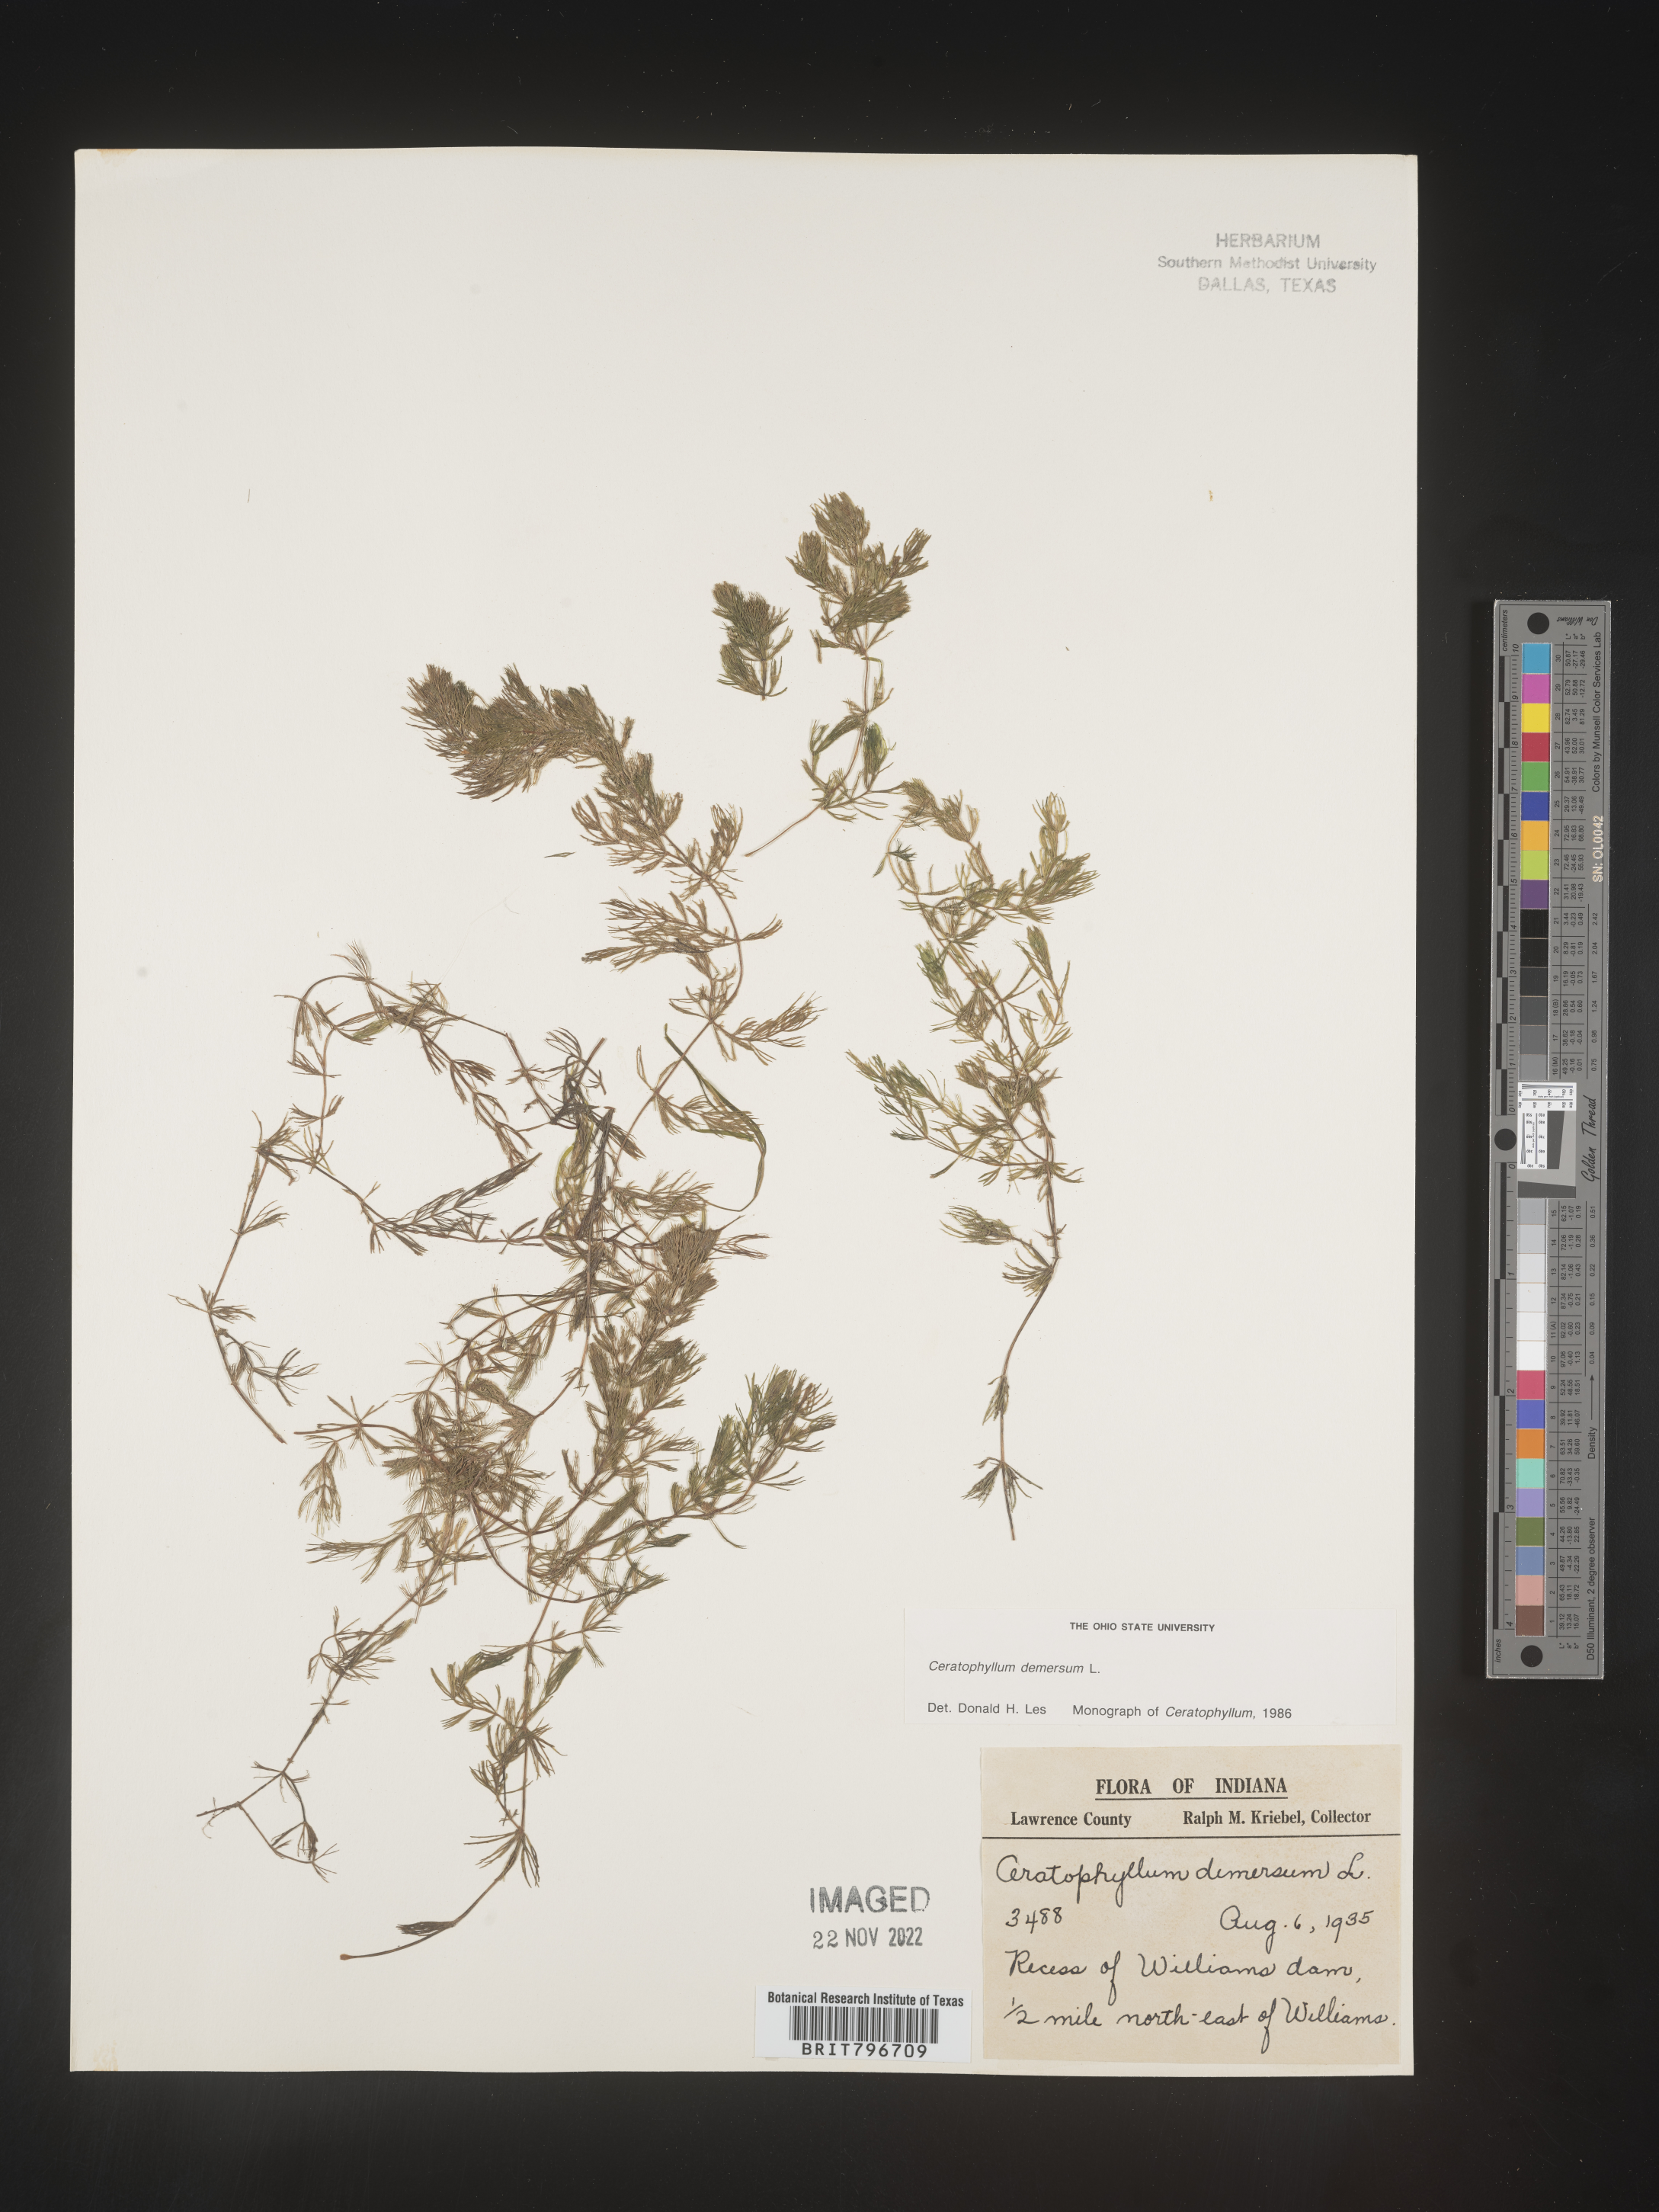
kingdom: Plantae
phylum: Tracheophyta
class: Magnoliopsida
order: Ceratophyllales
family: Ceratophyllaceae
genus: Ceratophyllum
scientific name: Ceratophyllum demersum
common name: Rigid hornwort
